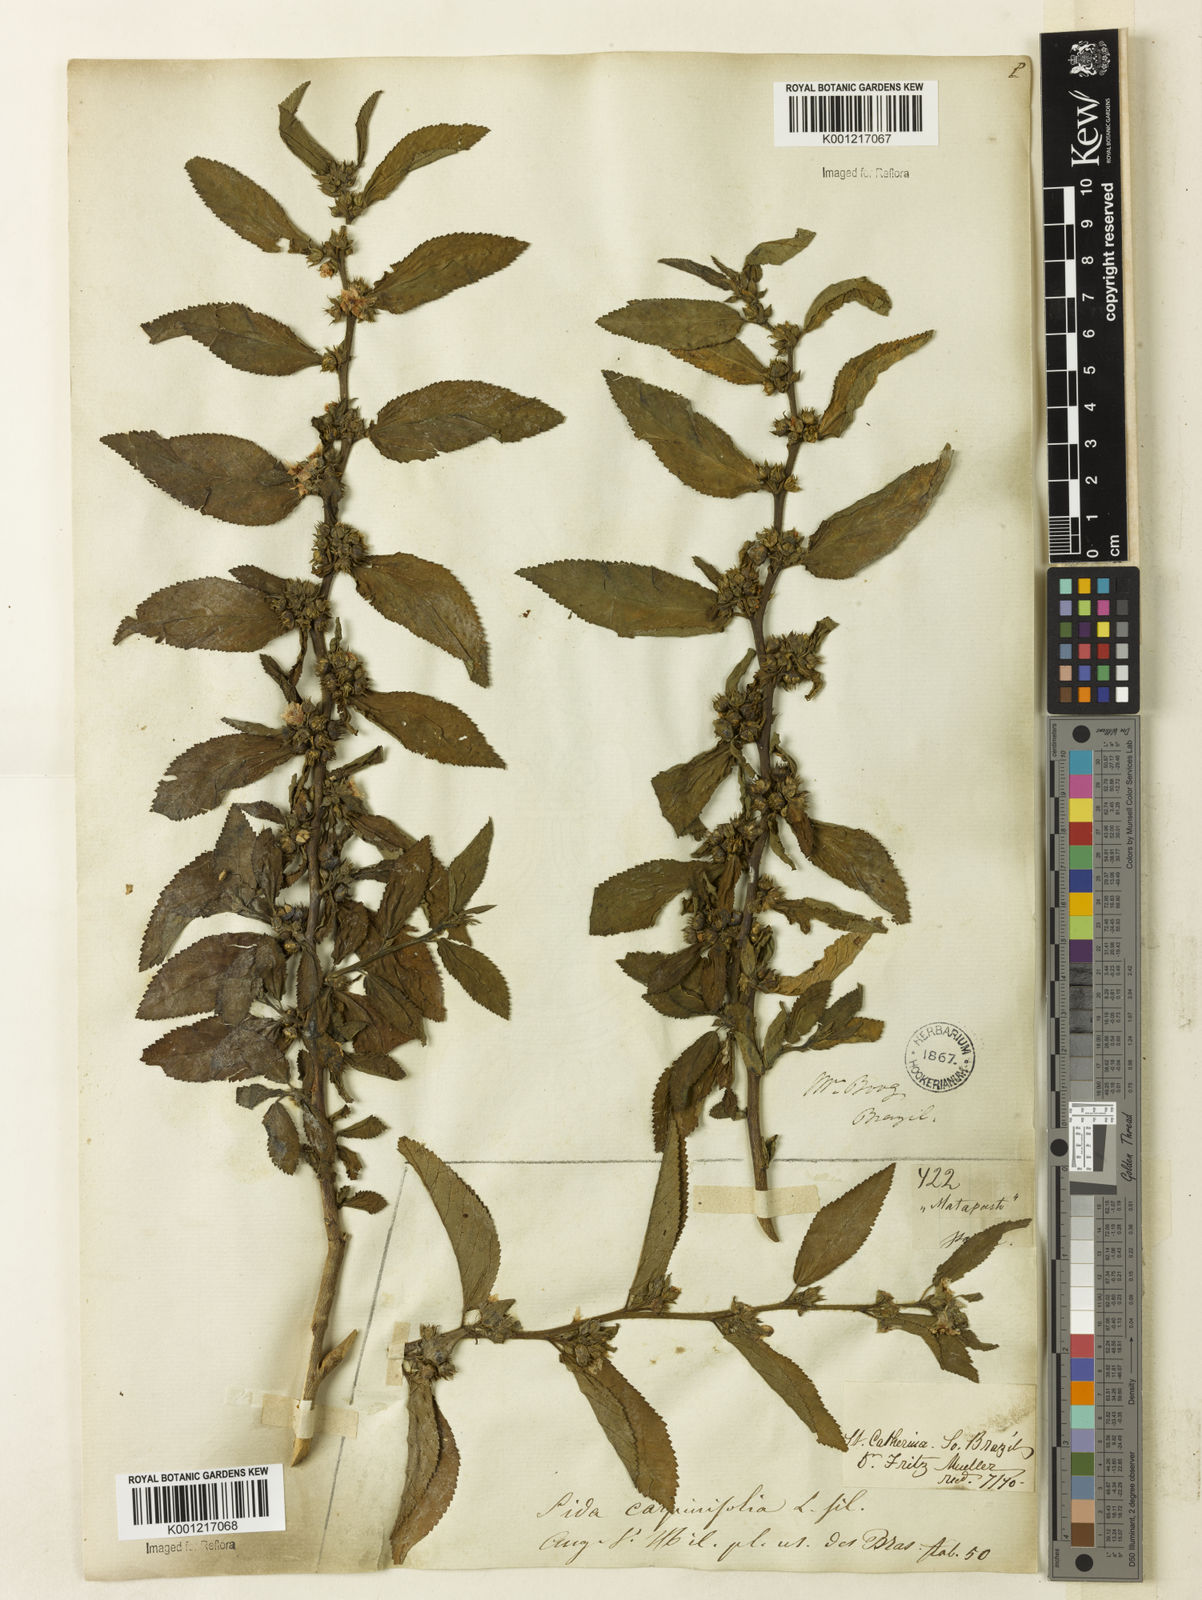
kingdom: Plantae
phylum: Tracheophyta
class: Magnoliopsida
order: Malvales
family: Malvaceae
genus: Sida
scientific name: Sida
